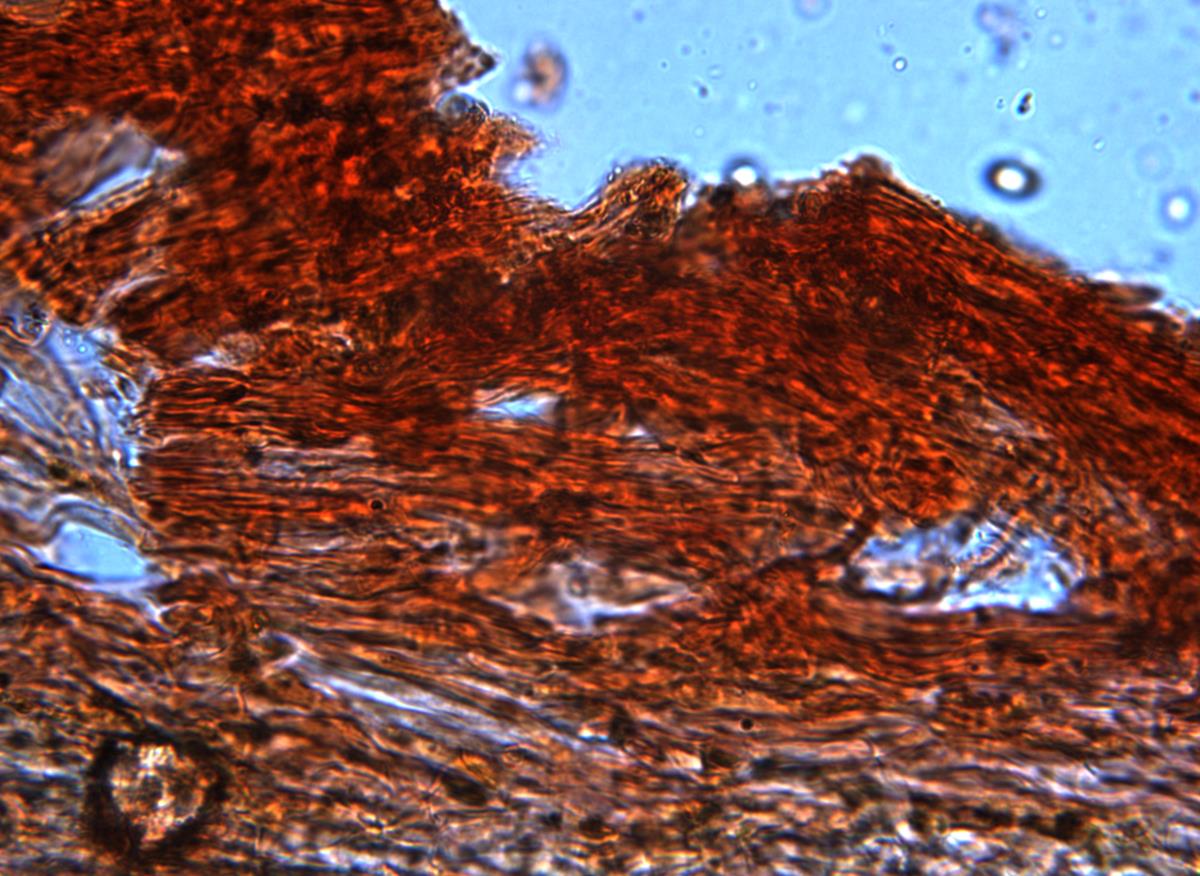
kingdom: Fungi
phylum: Basidiomycota
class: Agaricomycetes
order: Agaricales
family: Cortinariaceae
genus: Cortinarius
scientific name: Cortinarius anisodorus
